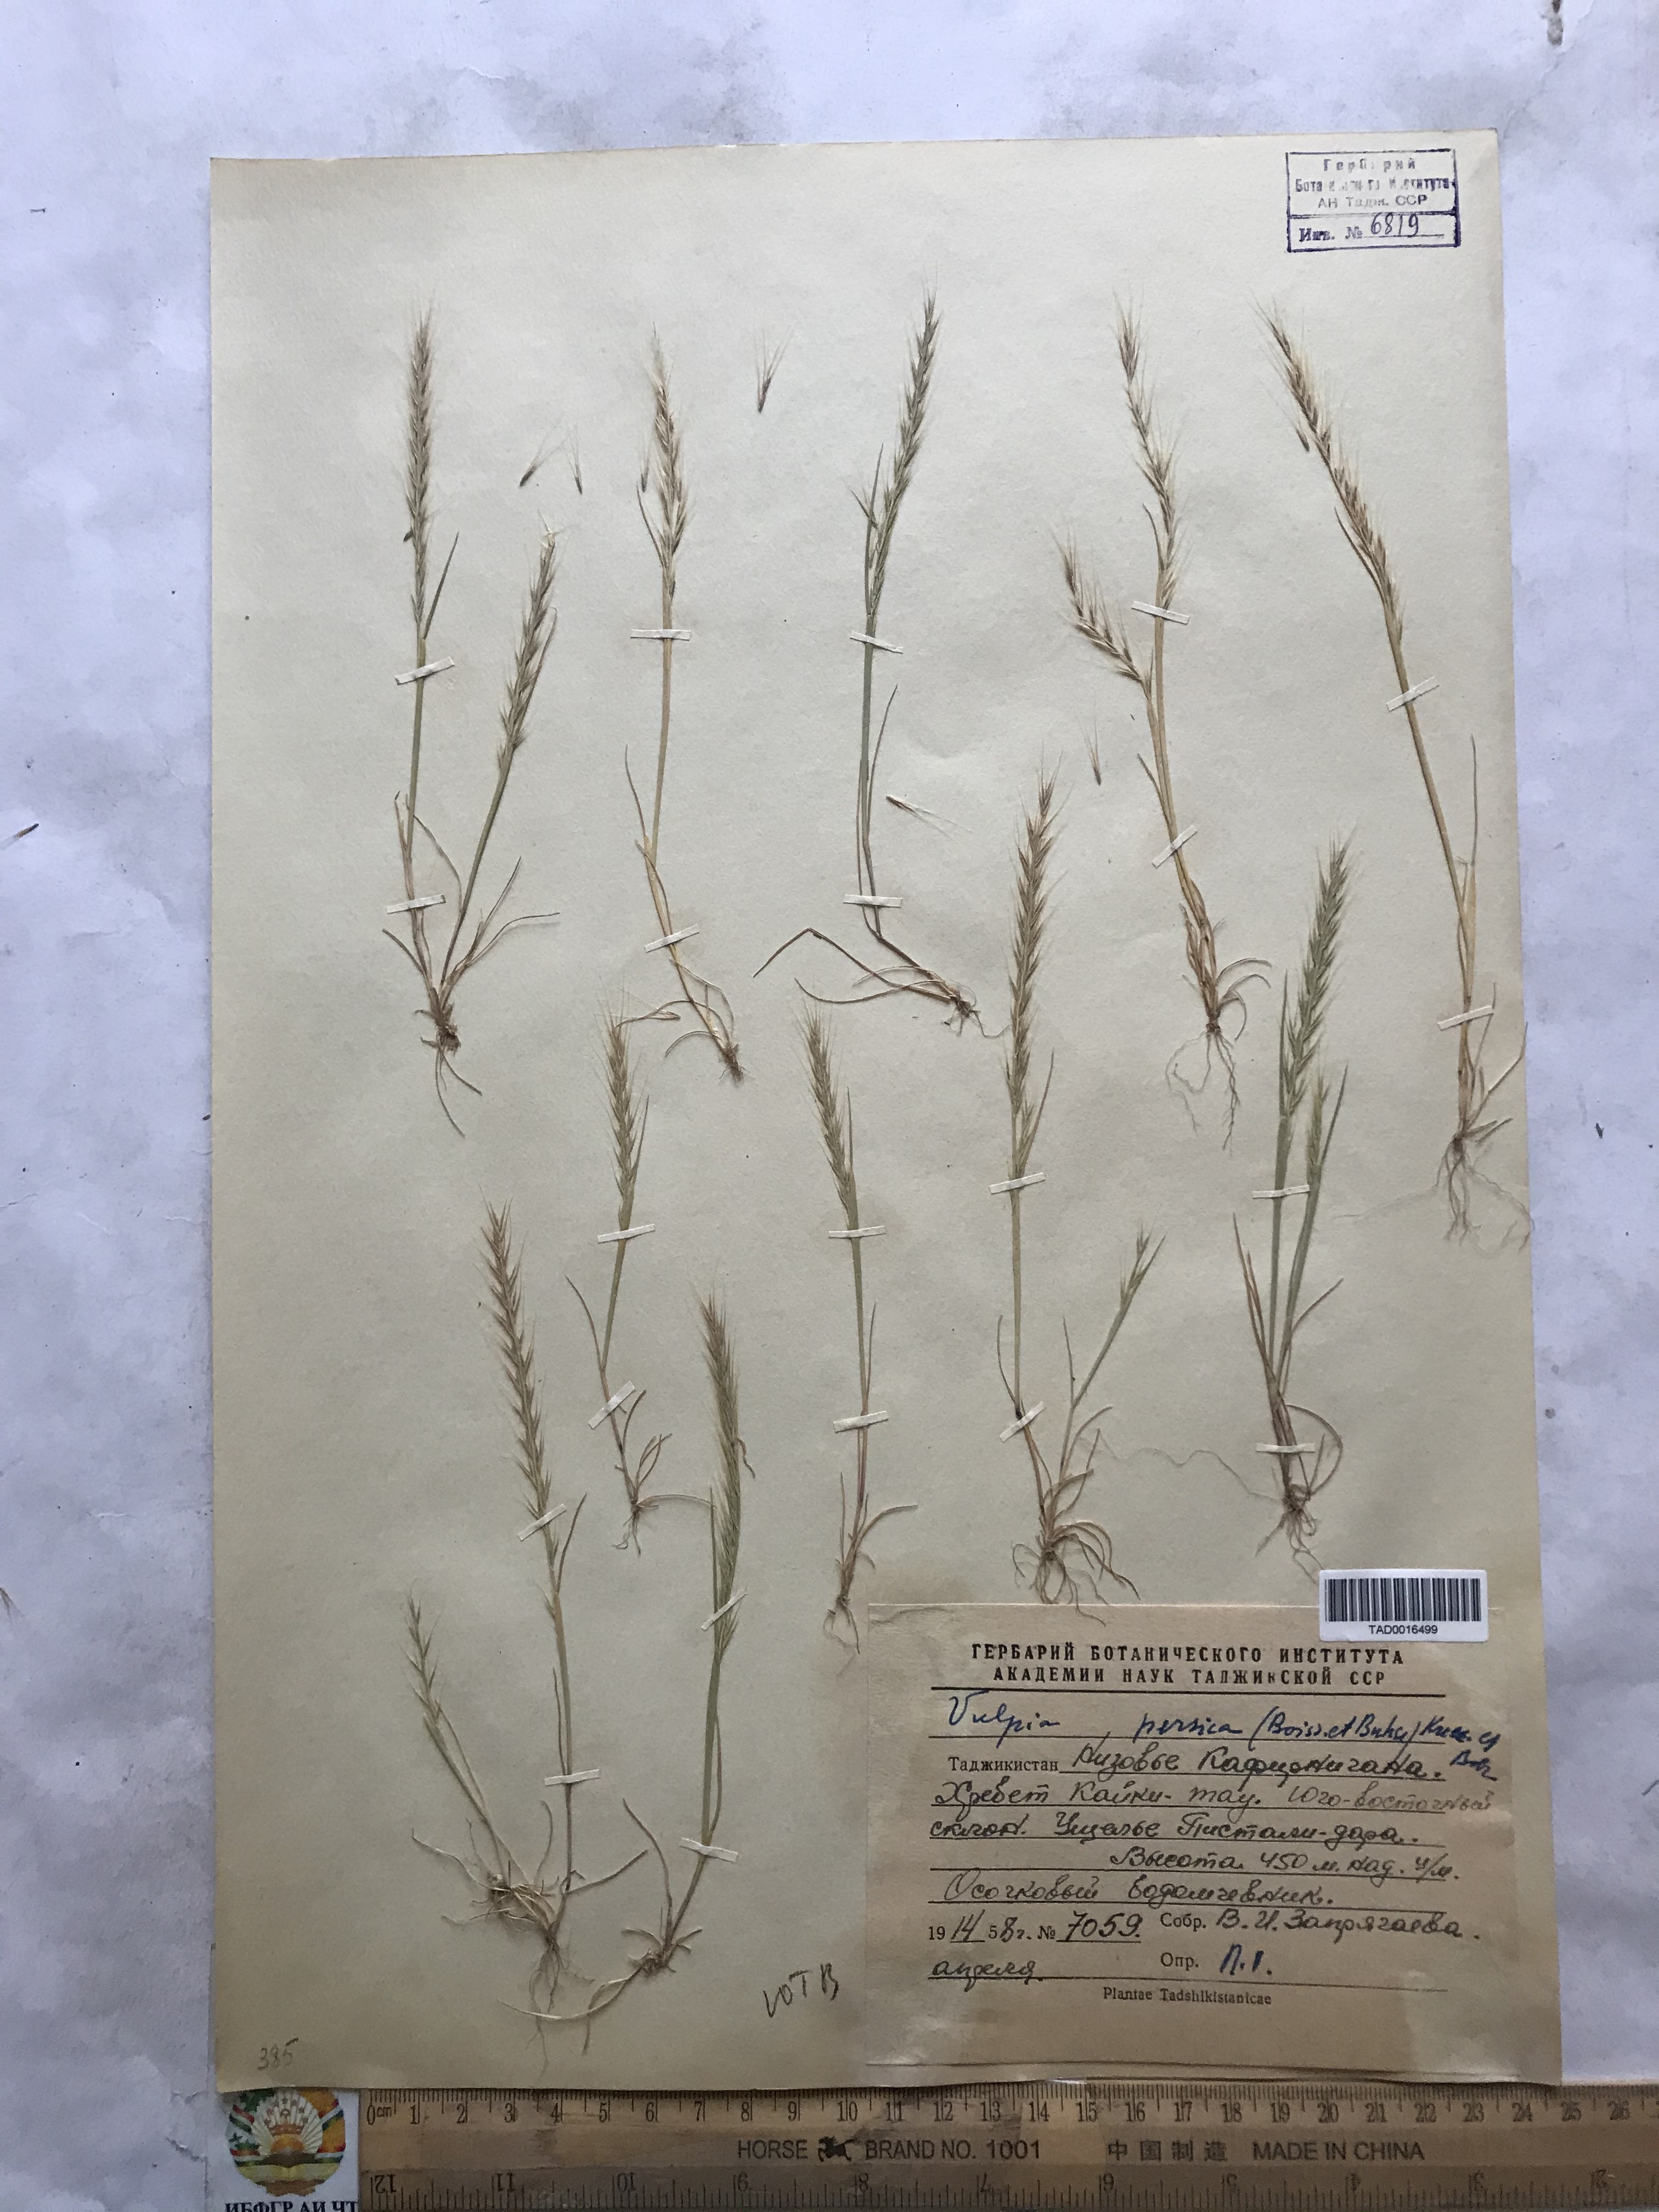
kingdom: Plantae
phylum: Tracheophyta
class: Liliopsida
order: Poales
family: Poaceae
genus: Festuca
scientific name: Festuca Vulpia persica
